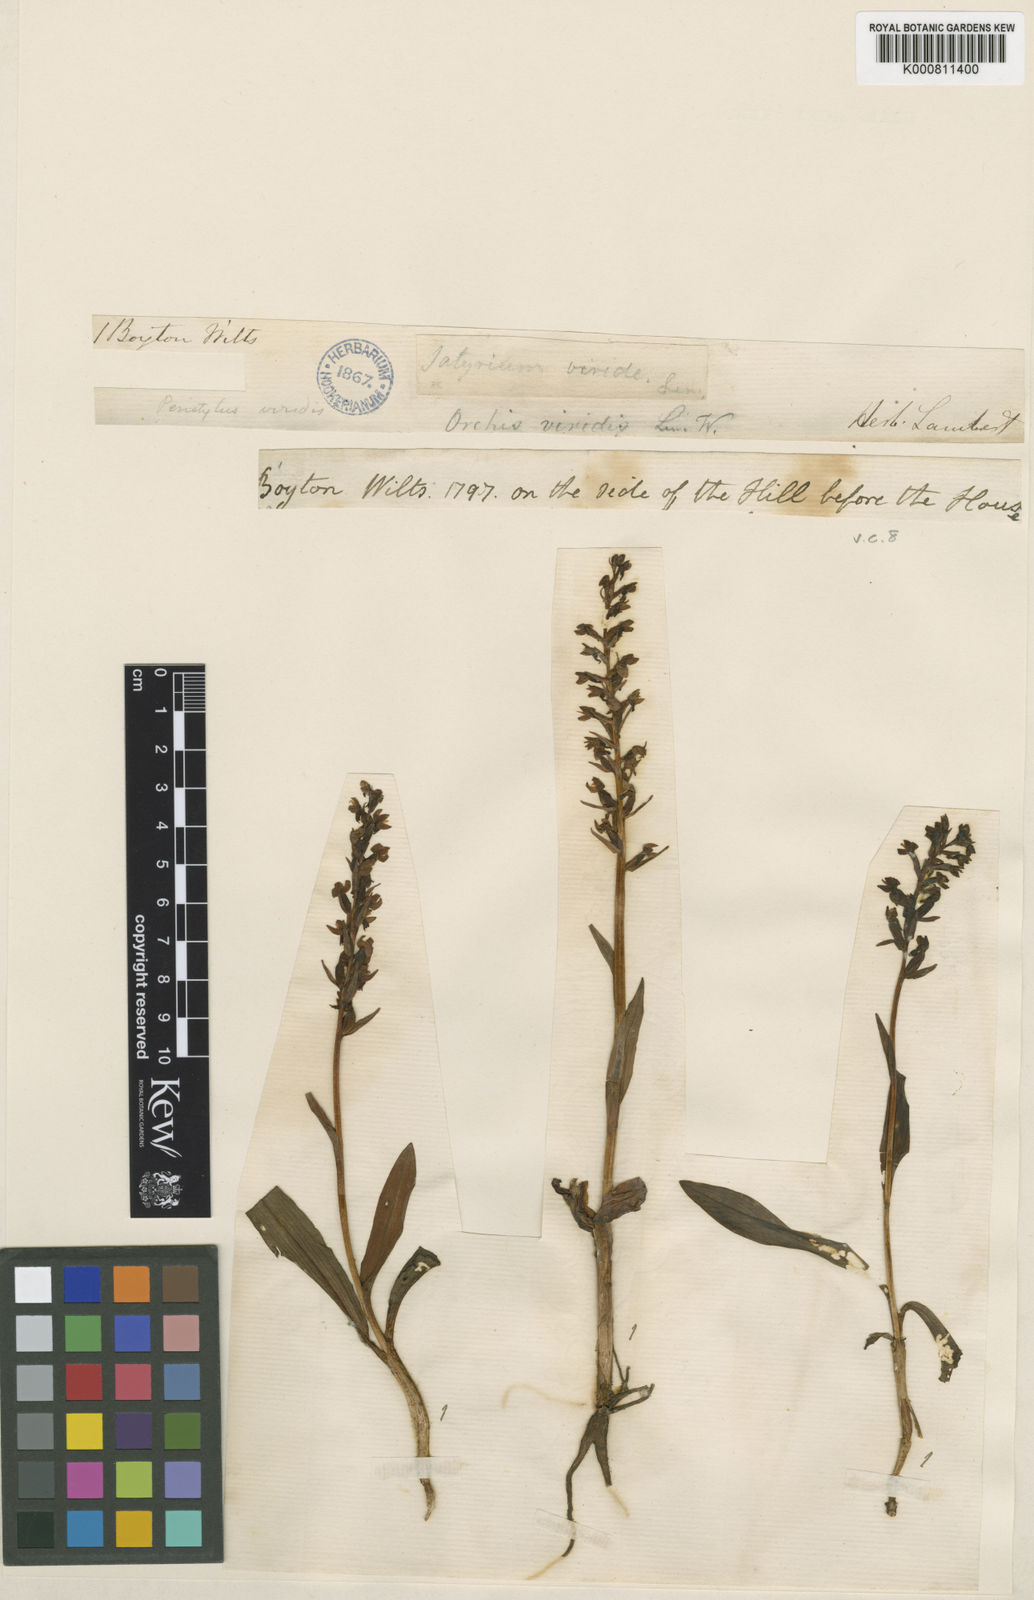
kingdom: Plantae
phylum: Tracheophyta
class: Liliopsida
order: Asparagales
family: Orchidaceae
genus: Dactylorhiza
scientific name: Dactylorhiza viridis
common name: Longbract frog orchid
